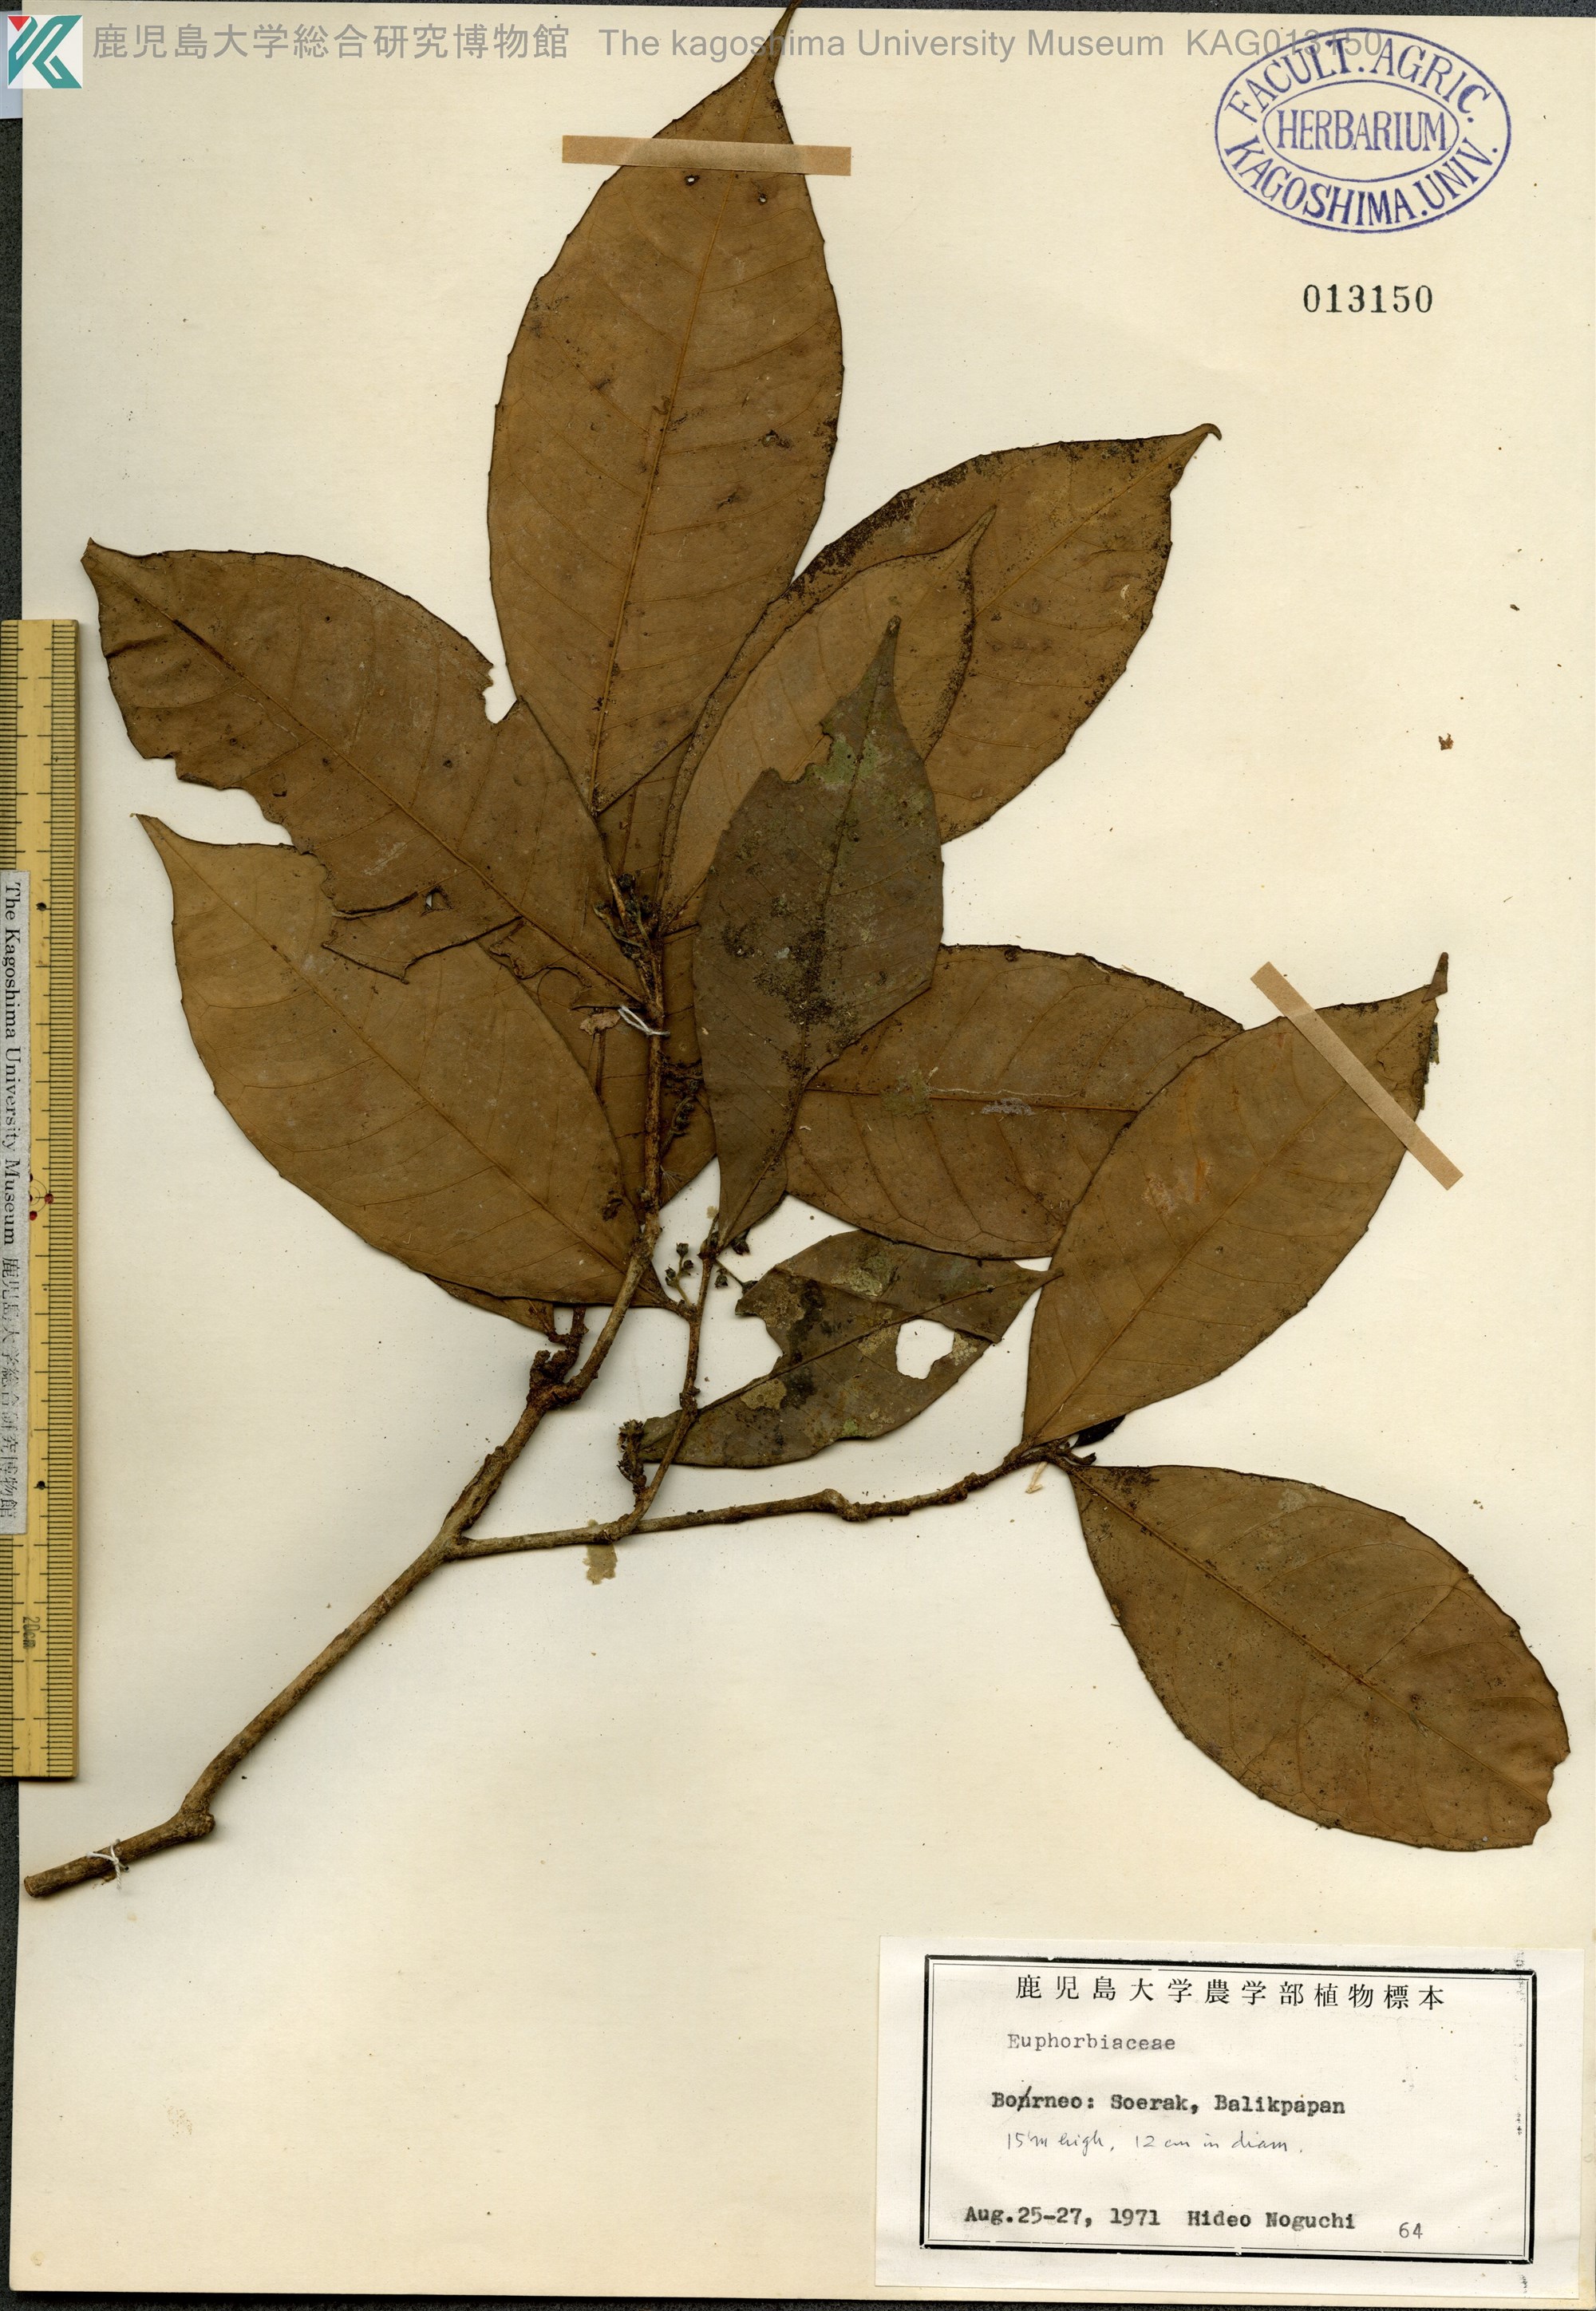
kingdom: Plantae
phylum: Tracheophyta
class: Magnoliopsida
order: Malpighiales
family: Euphorbiaceae
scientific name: Euphorbiaceae
